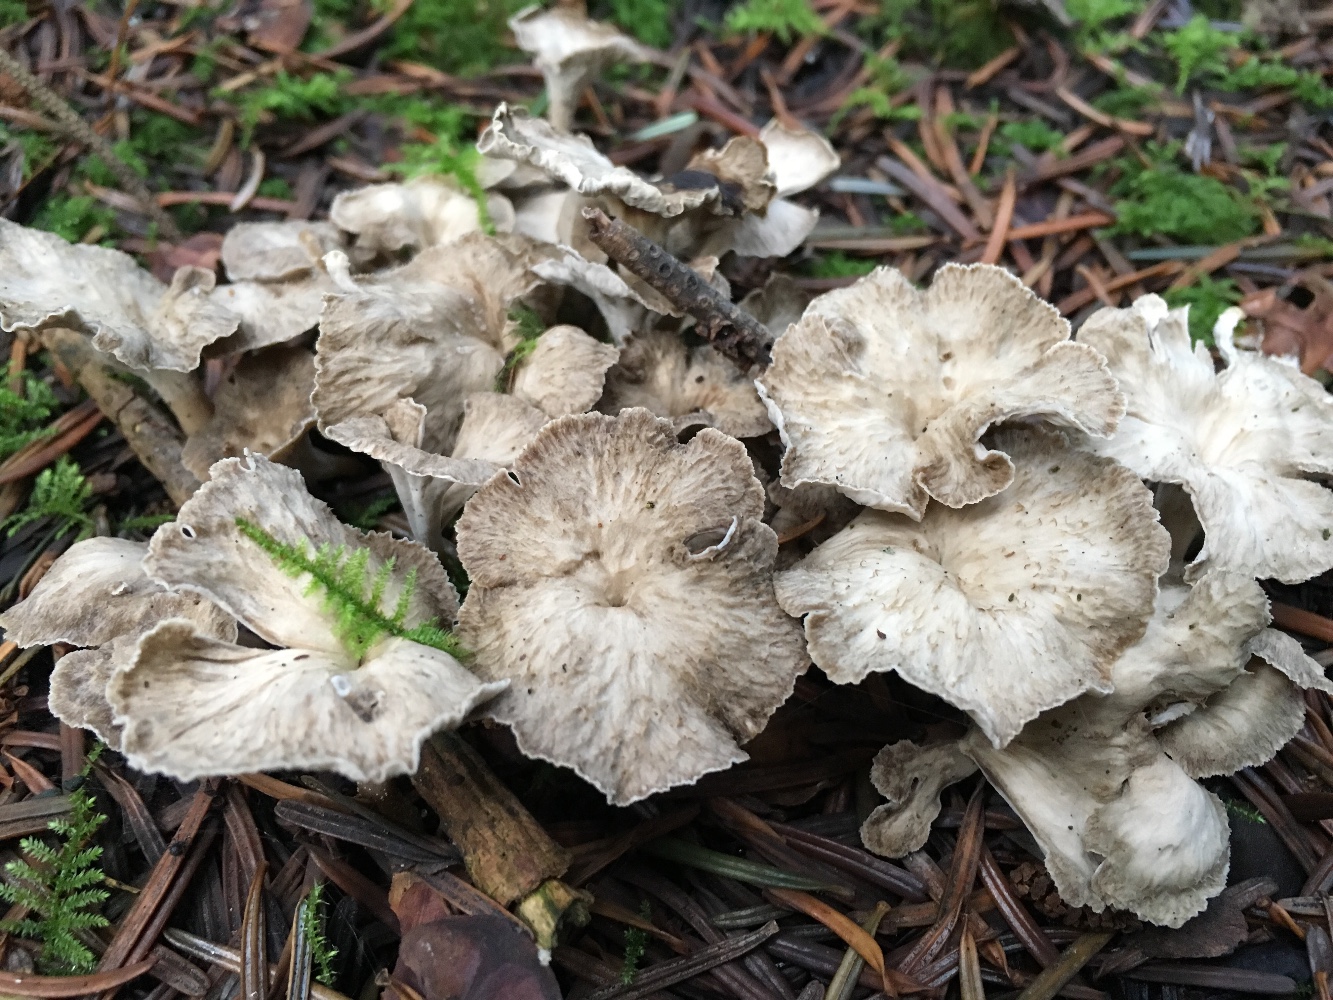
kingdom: Fungi
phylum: Basidiomycota
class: Agaricomycetes
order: Cantharellales
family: Hydnaceae
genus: Craterellus
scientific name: Craterellus undulatus
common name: liden kantarel
